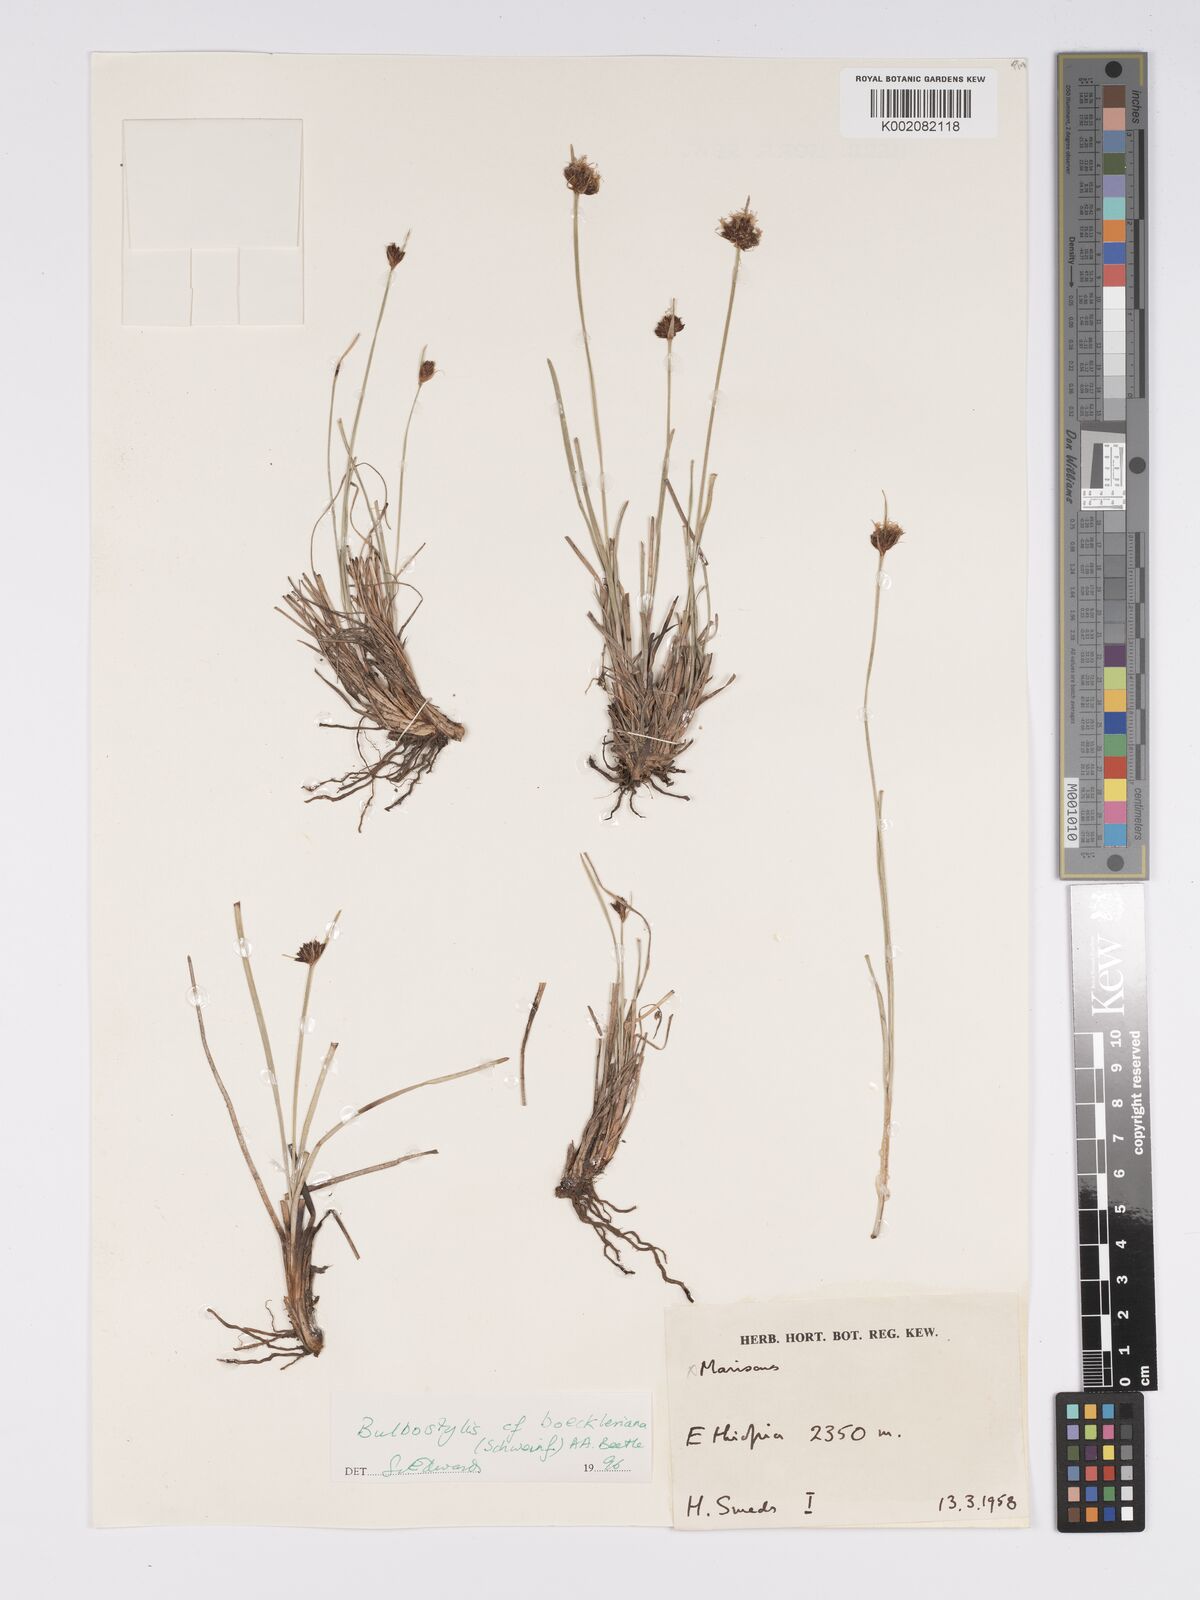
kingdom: Plantae
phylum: Tracheophyta
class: Liliopsida
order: Poales
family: Cyperaceae
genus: Bulbostylis
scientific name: Bulbostylis boeckeleriana
